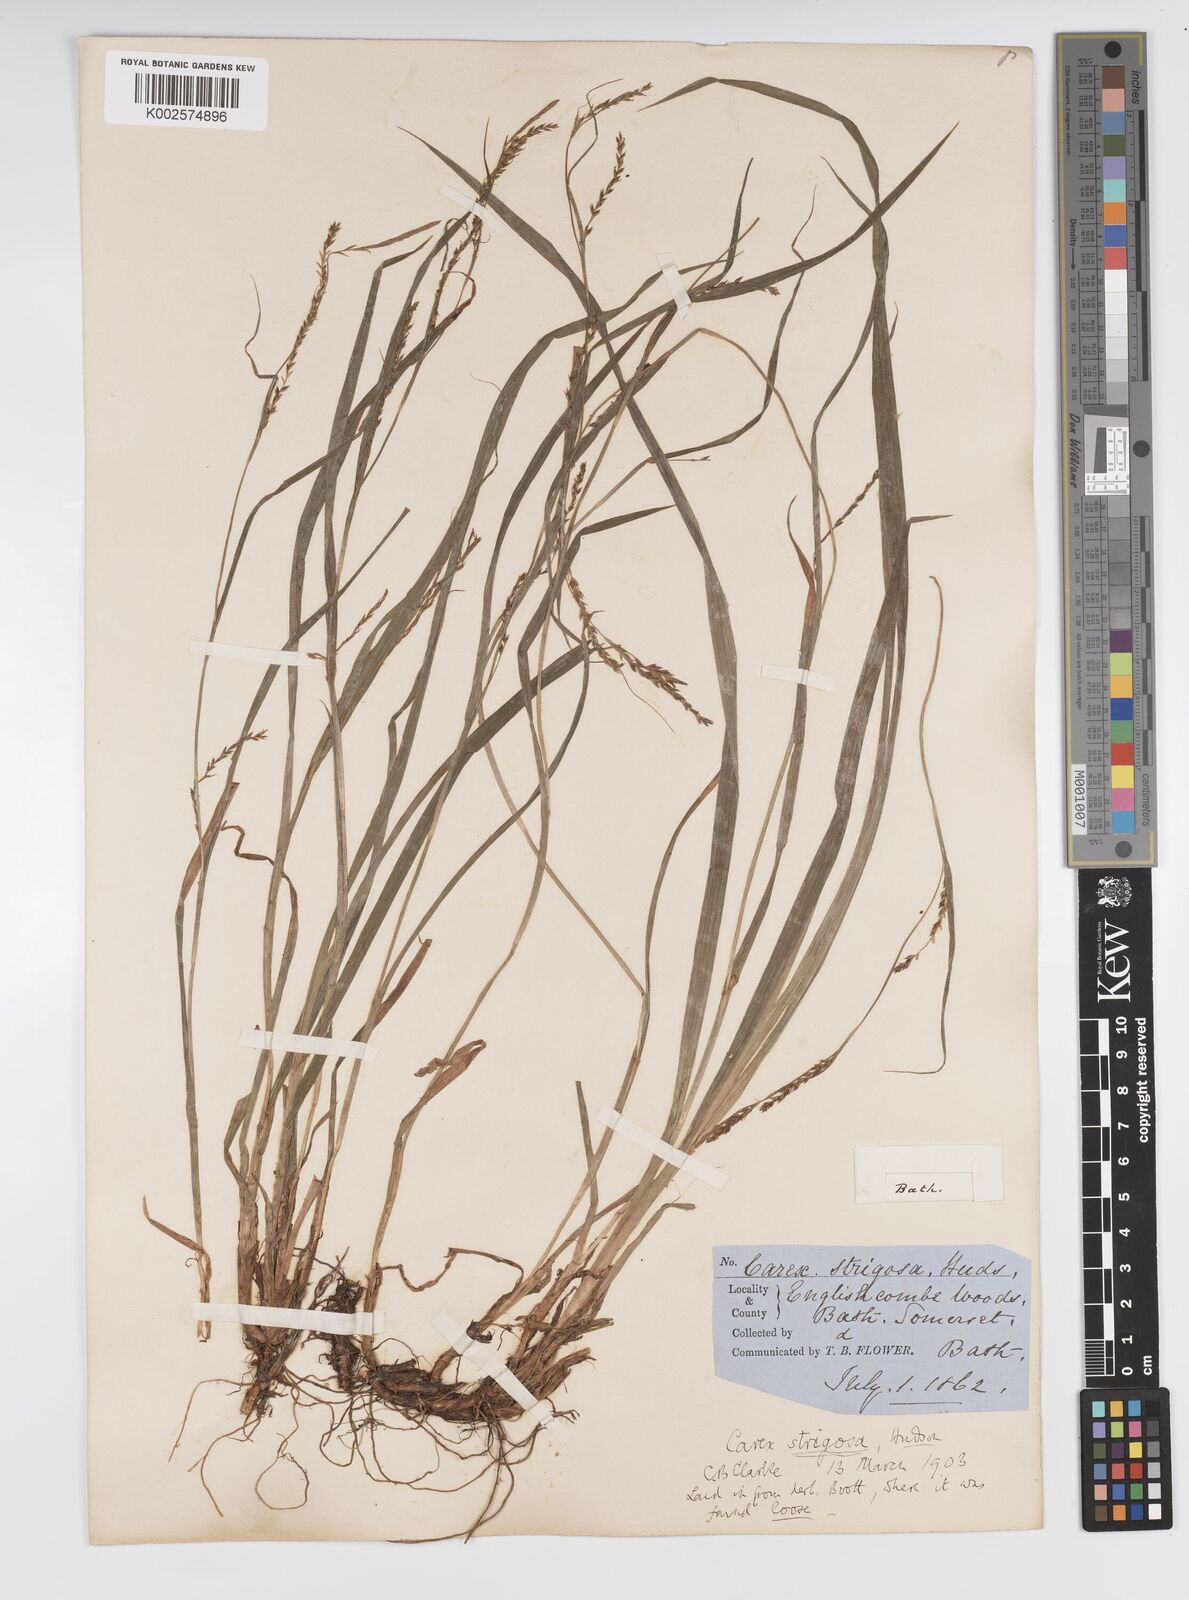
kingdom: Plantae
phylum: Tracheophyta
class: Liliopsida
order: Poales
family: Cyperaceae
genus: Carex
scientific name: Carex strigosa
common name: Thin-spiked wood-sedge
